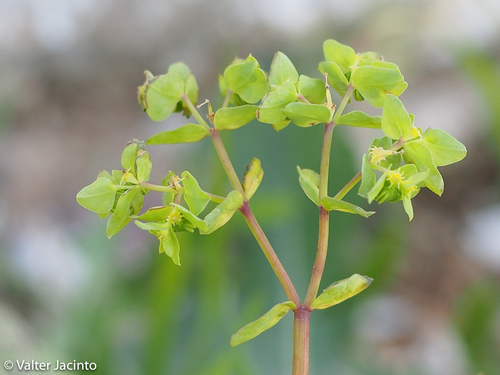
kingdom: Plantae
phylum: Tracheophyta
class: Magnoliopsida
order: Malpighiales
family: Euphorbiaceae
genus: Euphorbia
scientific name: Euphorbia peplus
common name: Petty spurge
